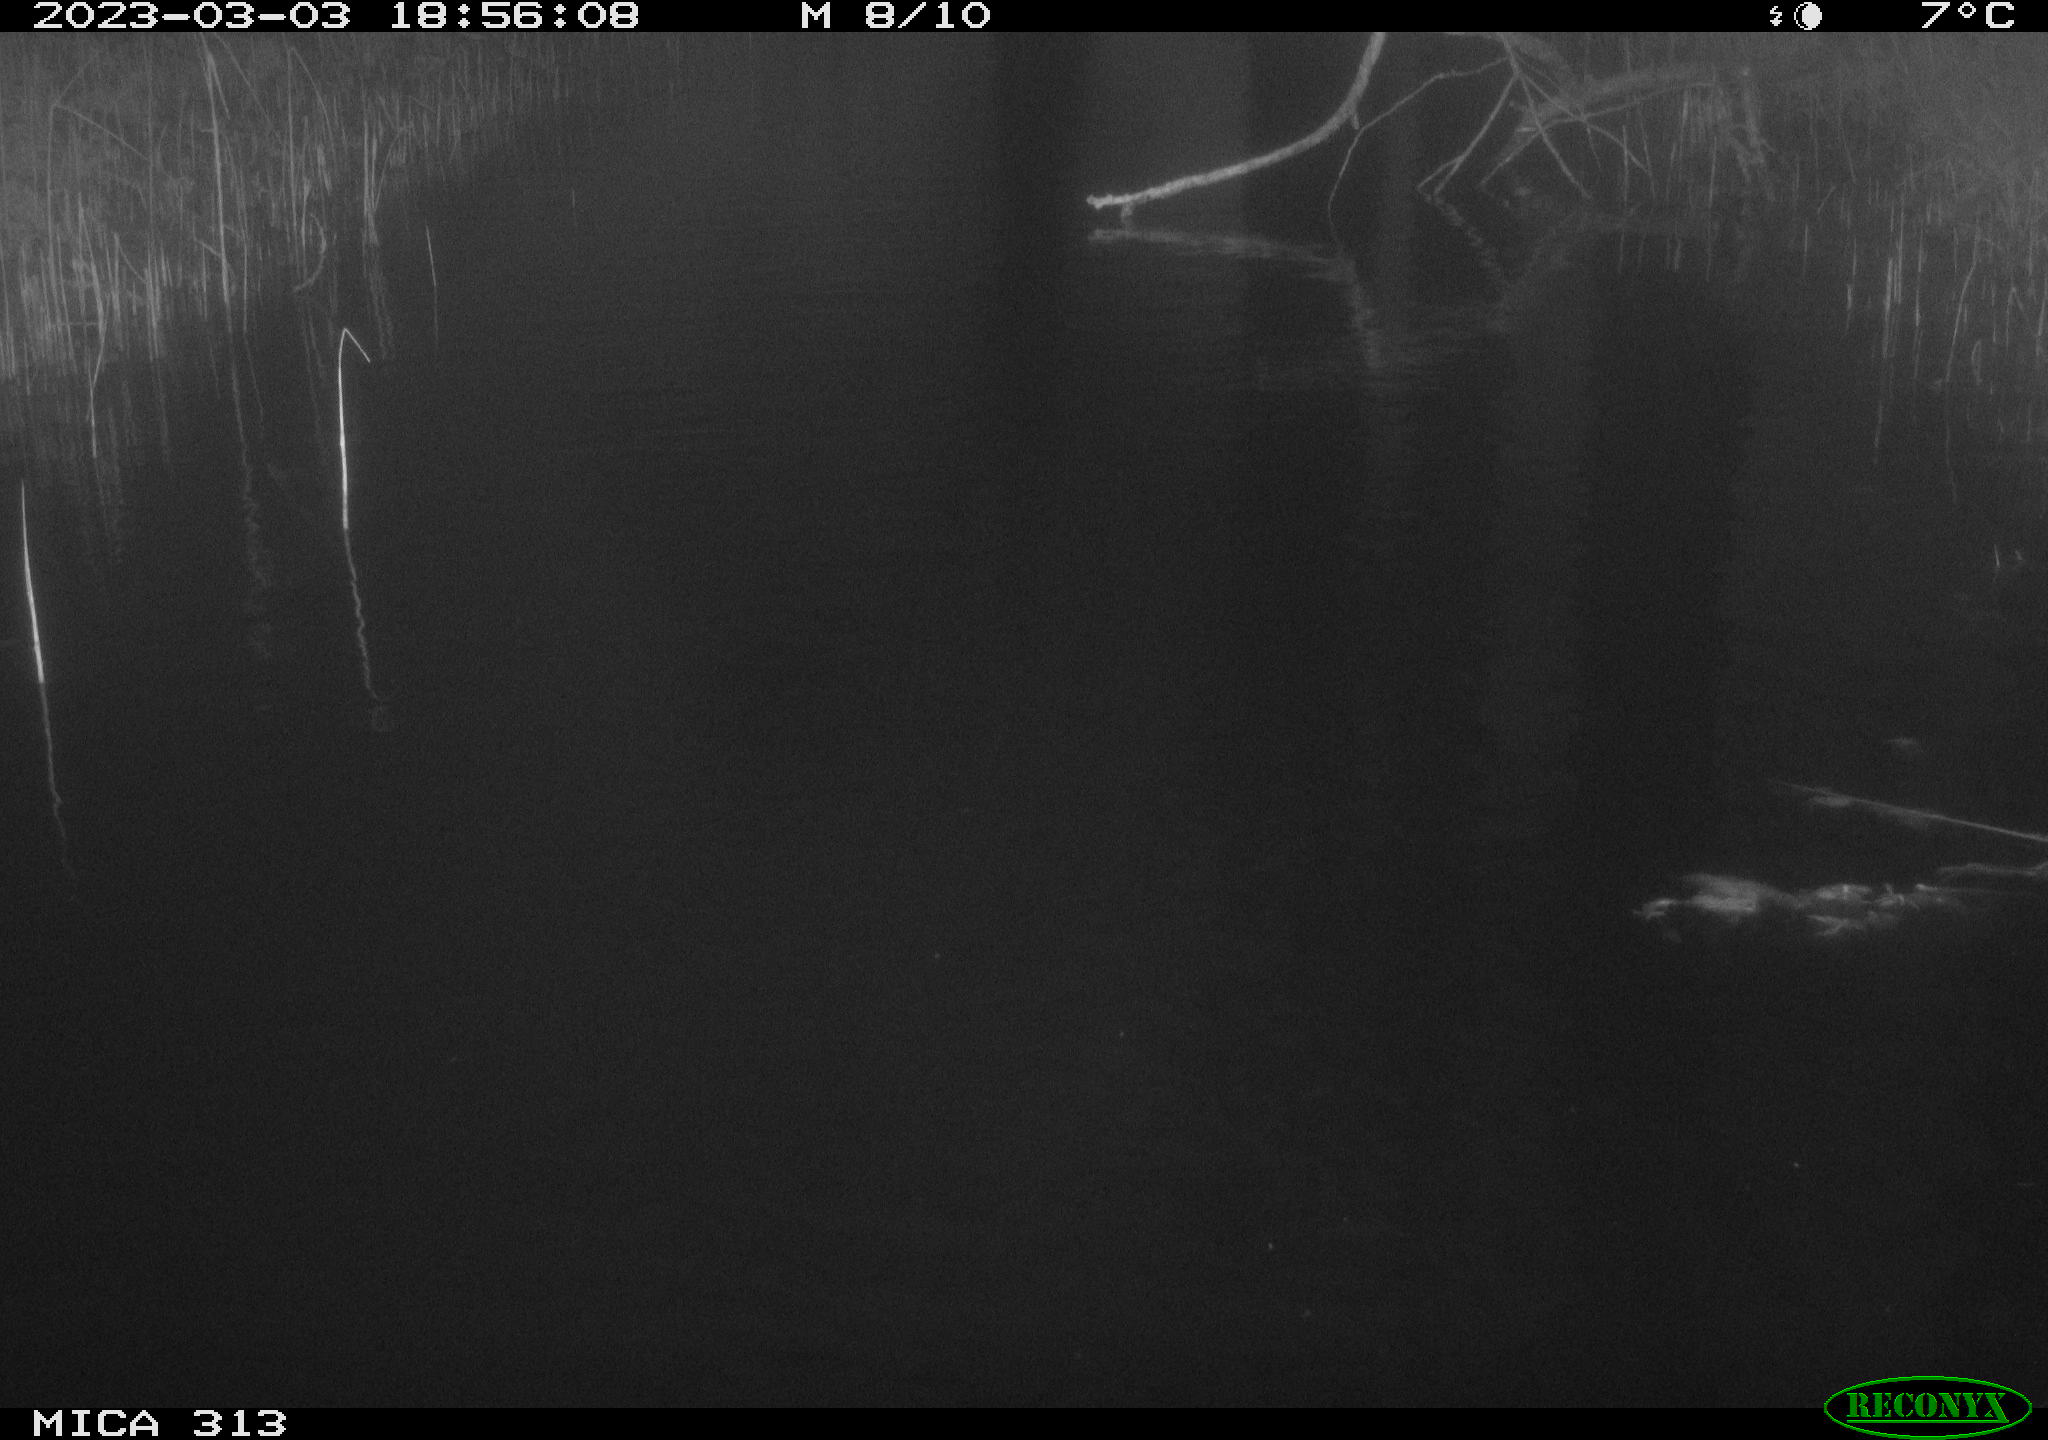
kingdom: Animalia
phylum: Chordata
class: Aves
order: Gruiformes
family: Rallidae
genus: Gallinula
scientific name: Gallinula chloropus
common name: Common moorhen
